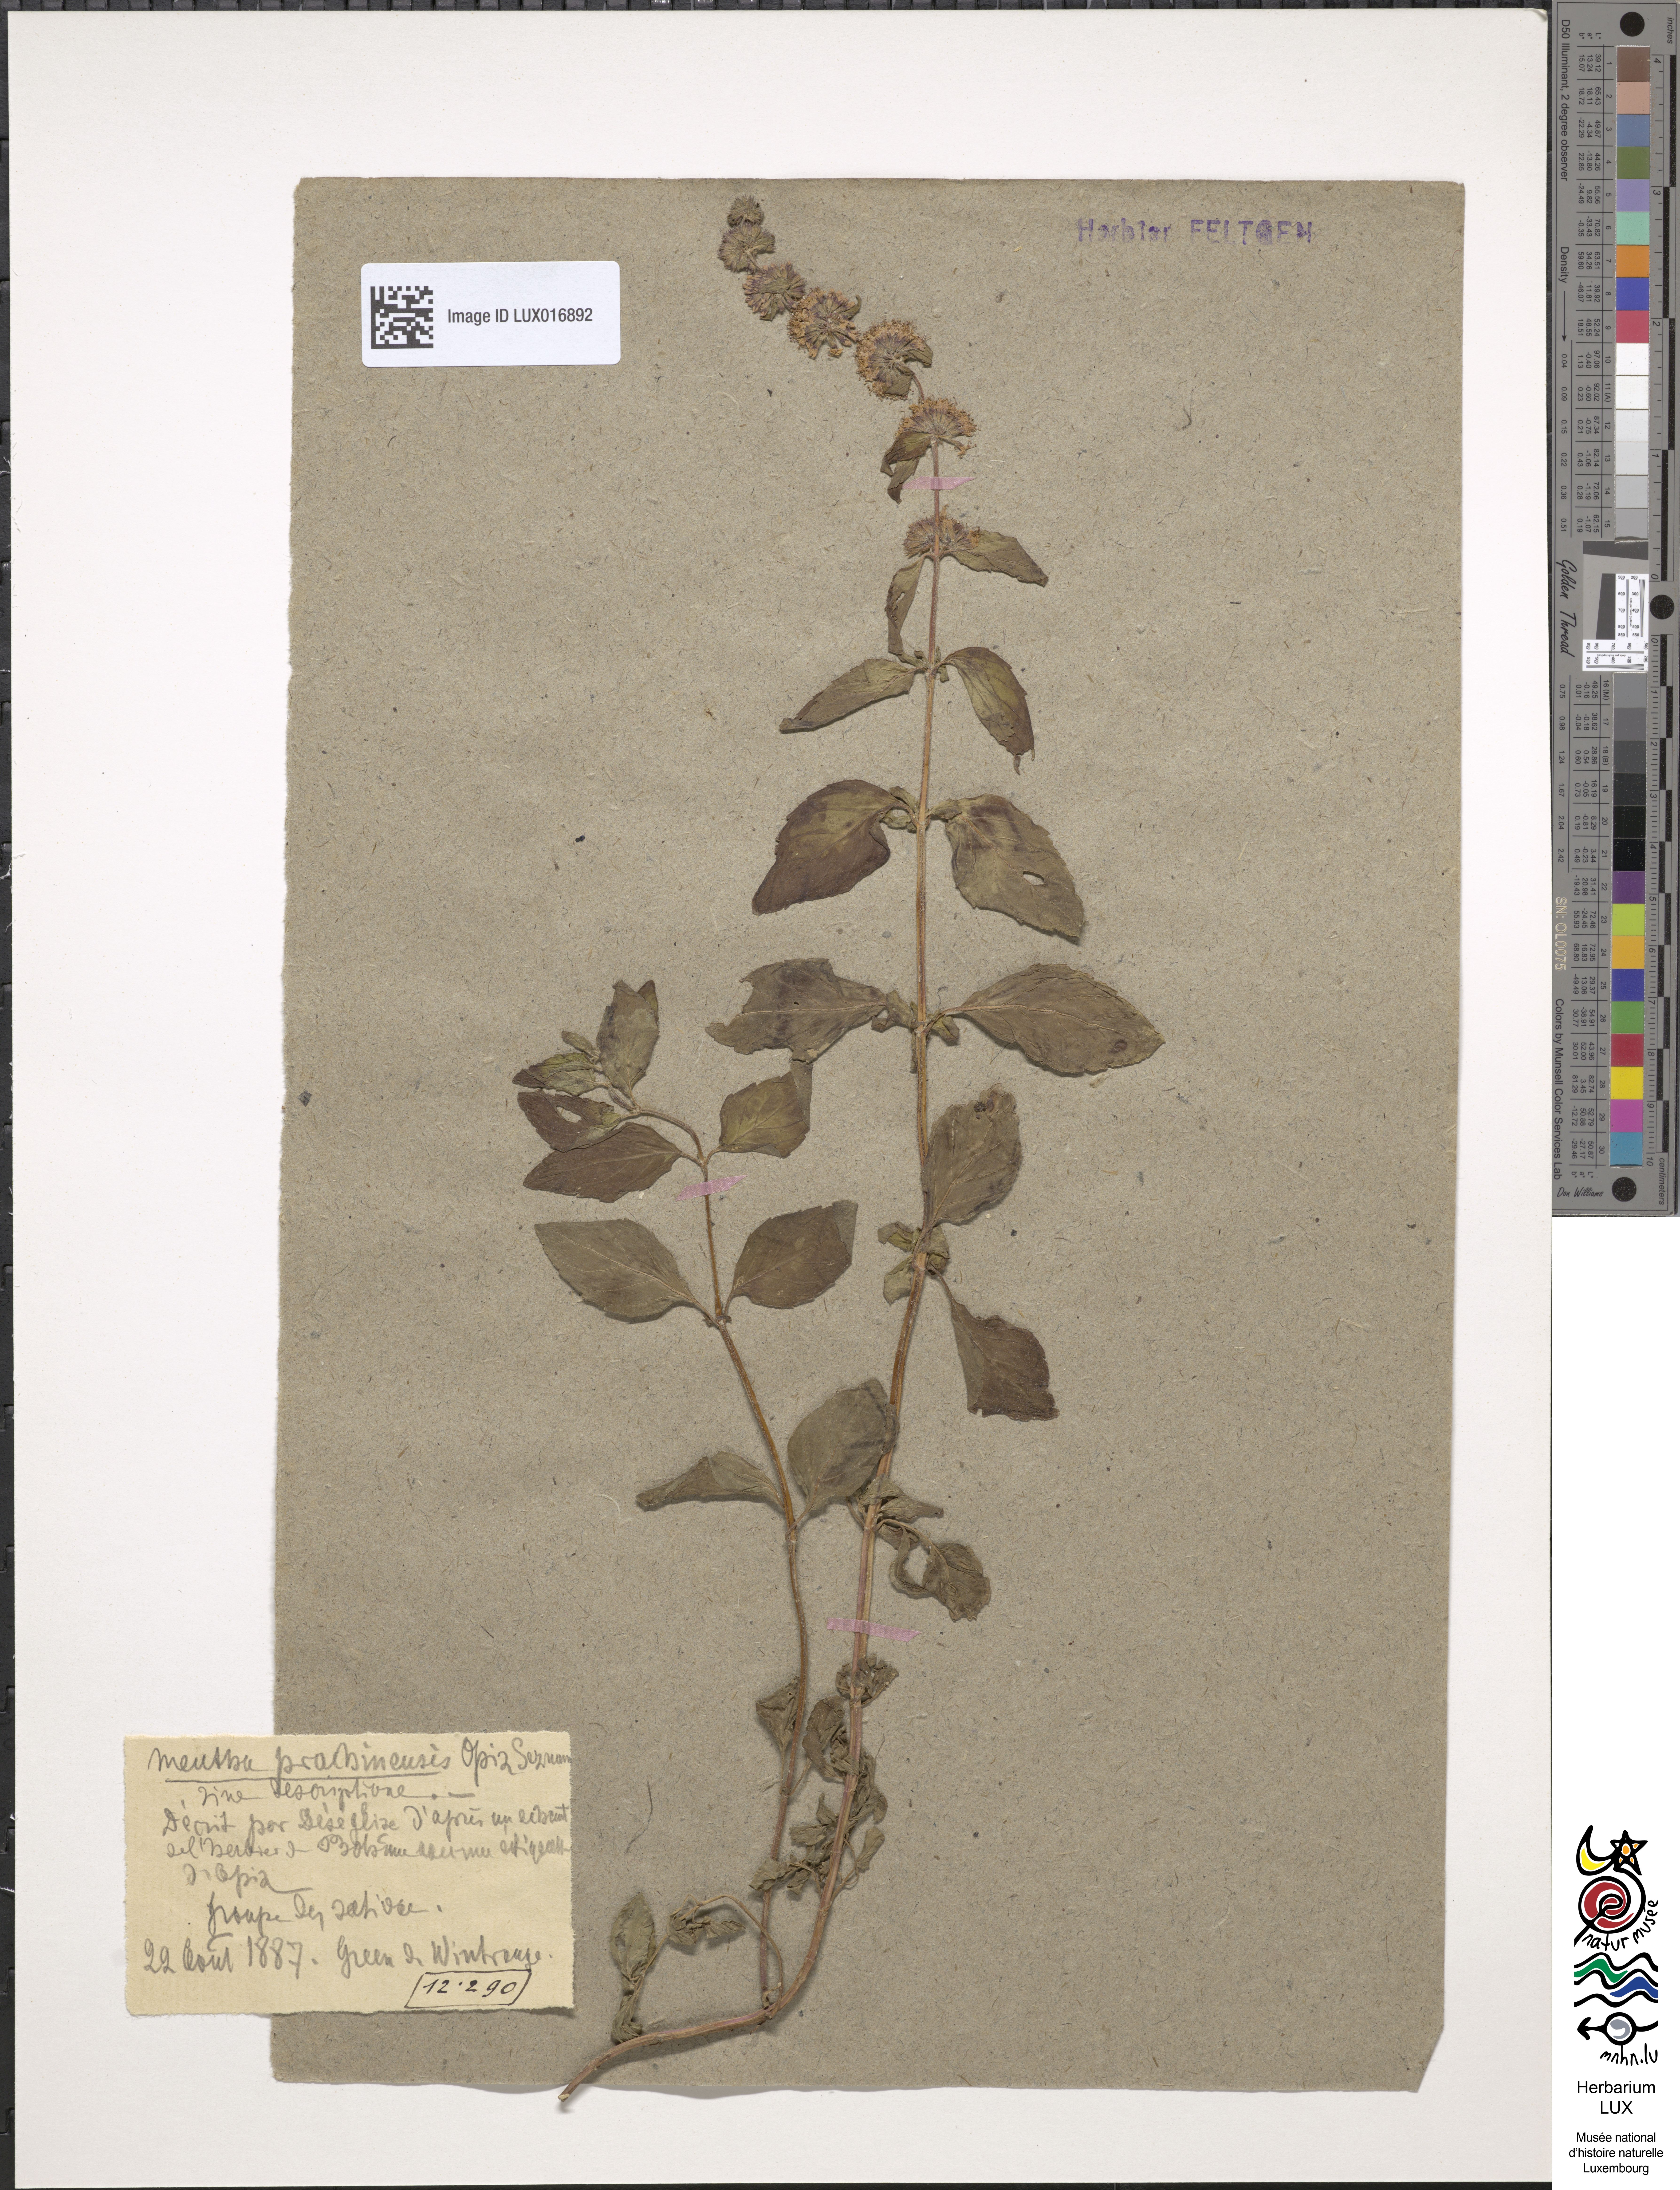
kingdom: Plantae
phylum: Tracheophyta
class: Magnoliopsida
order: Lamiales
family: Lamiaceae
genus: Mentha
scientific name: Mentha verticillata
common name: Mint
